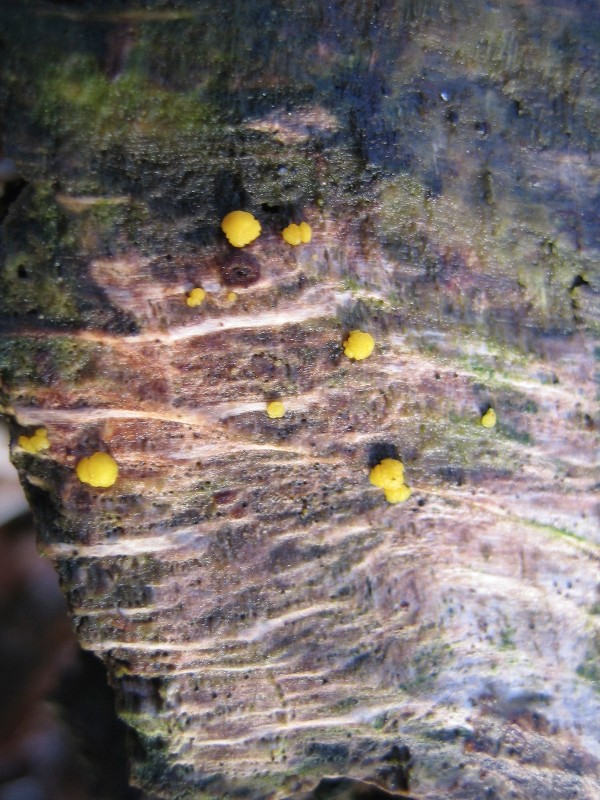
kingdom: Fungi
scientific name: Fungi
